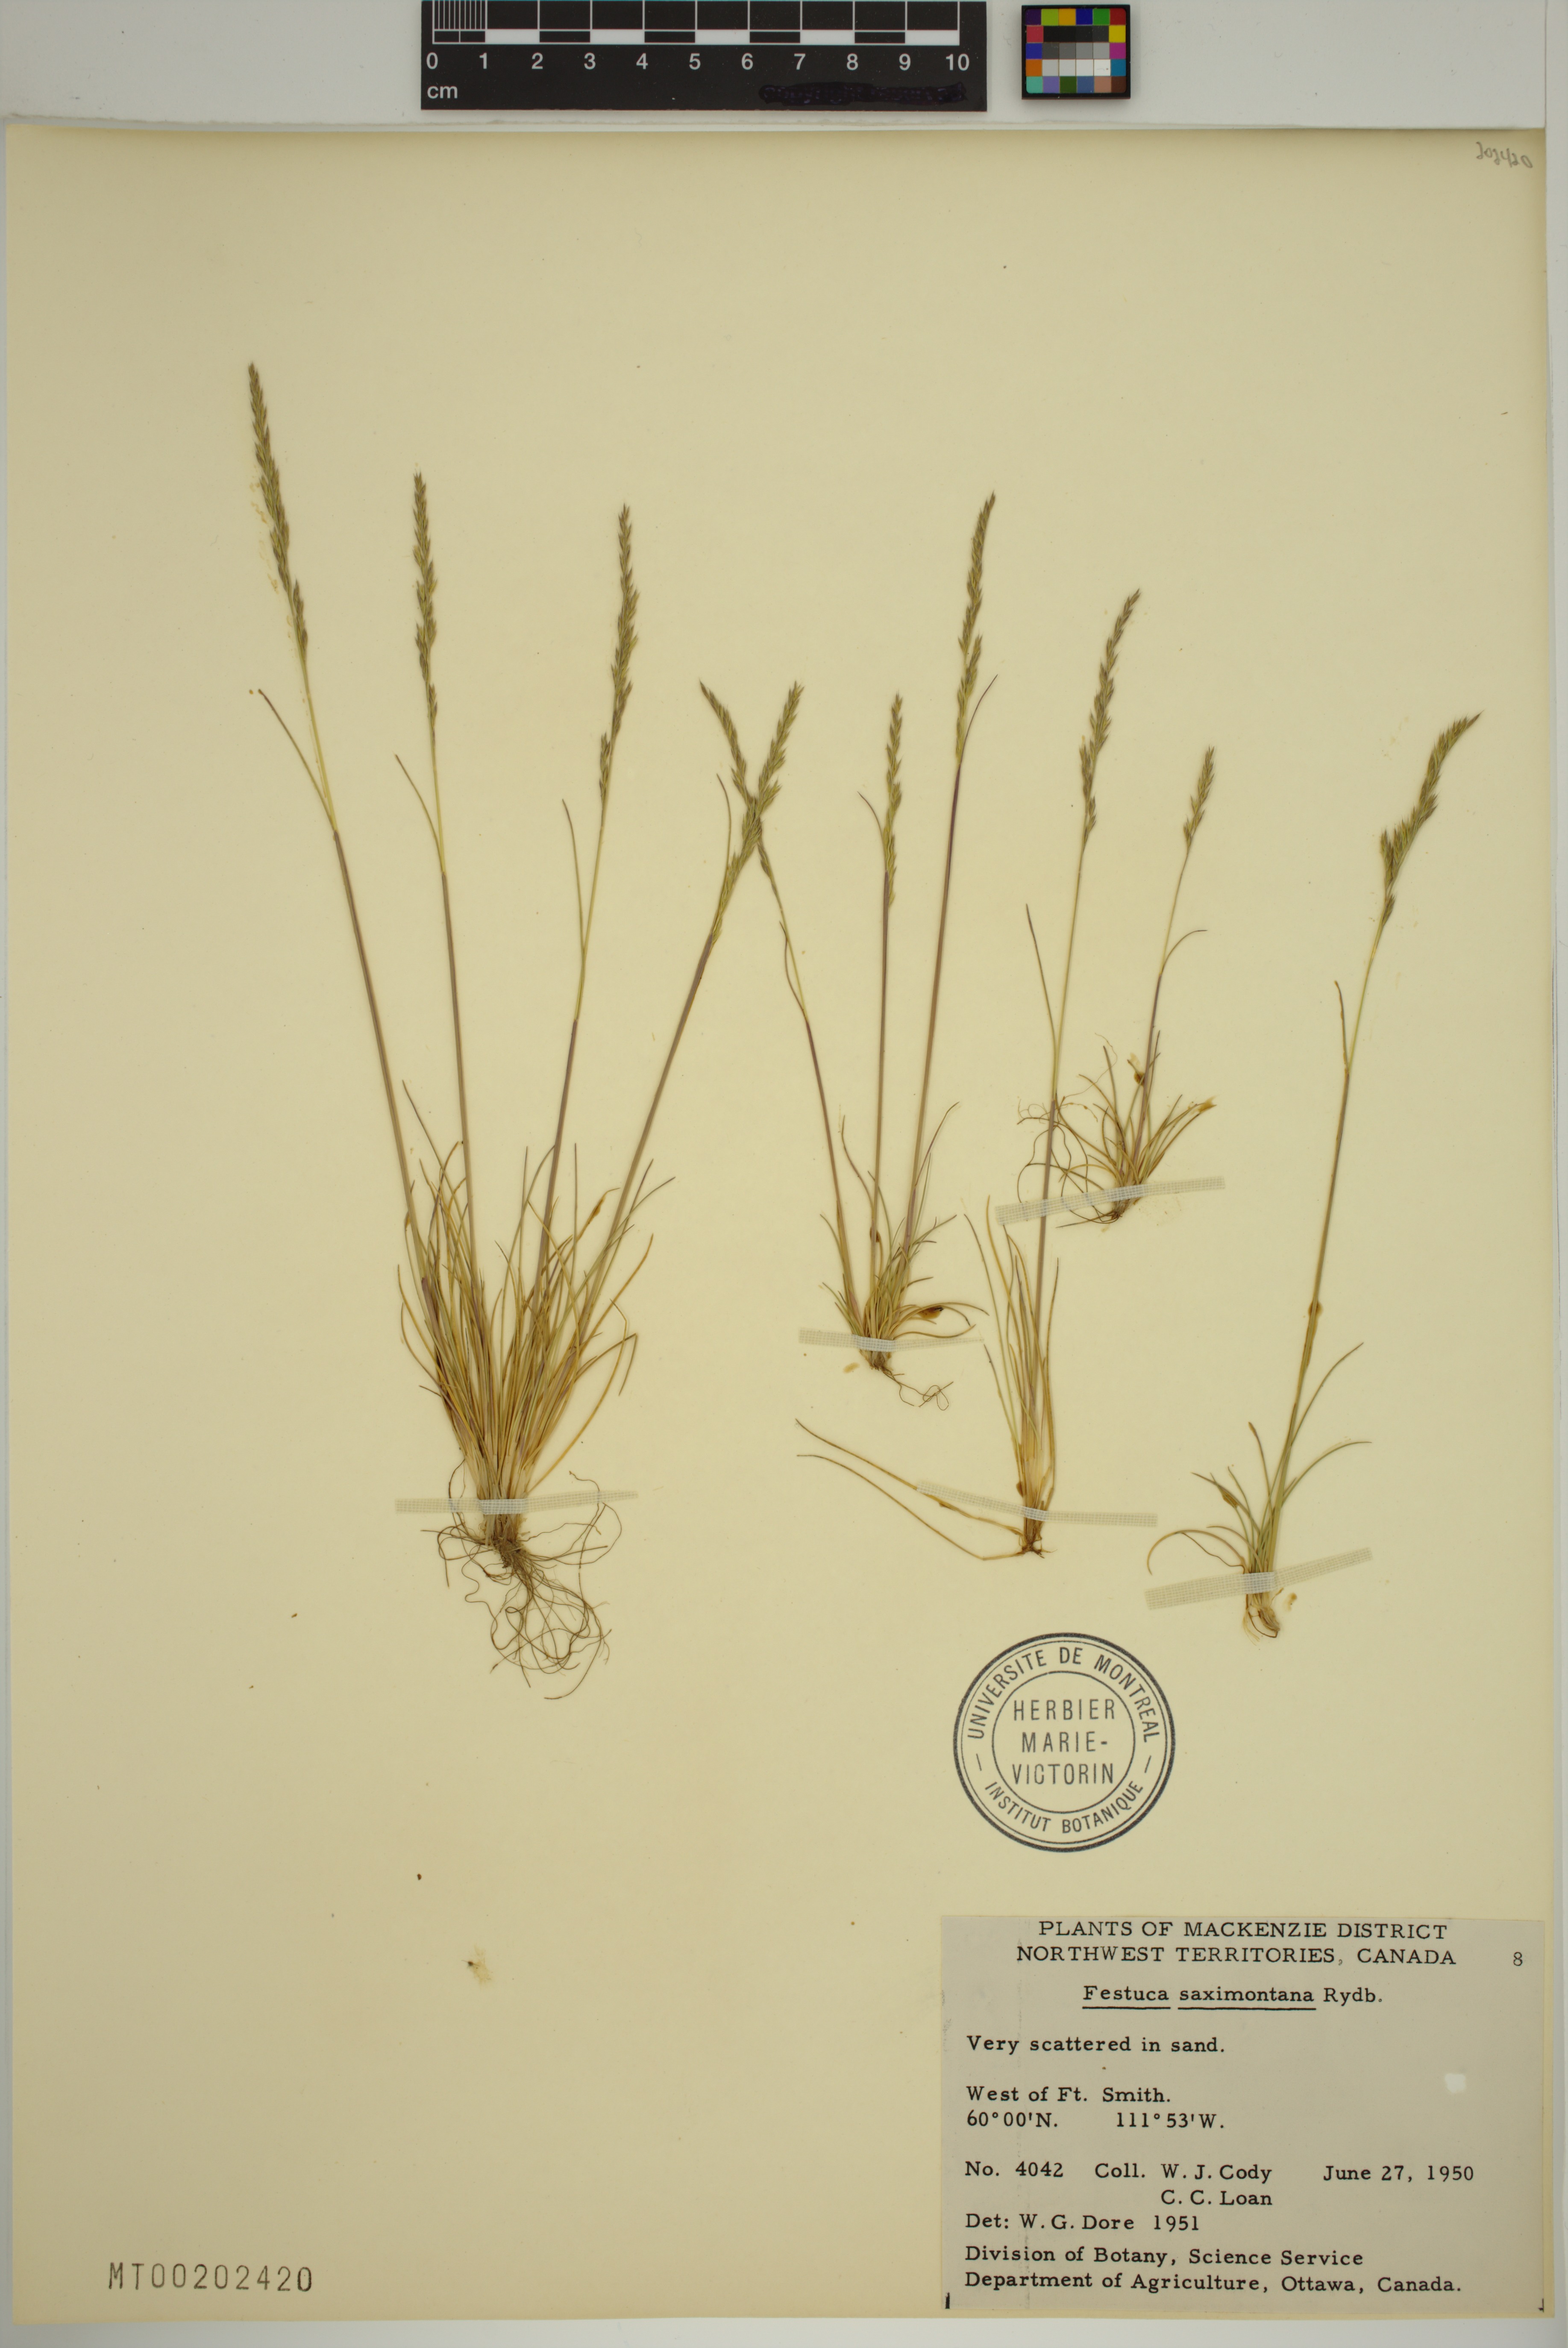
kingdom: Plantae
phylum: Tracheophyta
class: Liliopsida
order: Poales
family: Poaceae
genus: Festuca
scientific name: Festuca saximontana
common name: Mountain fescue
